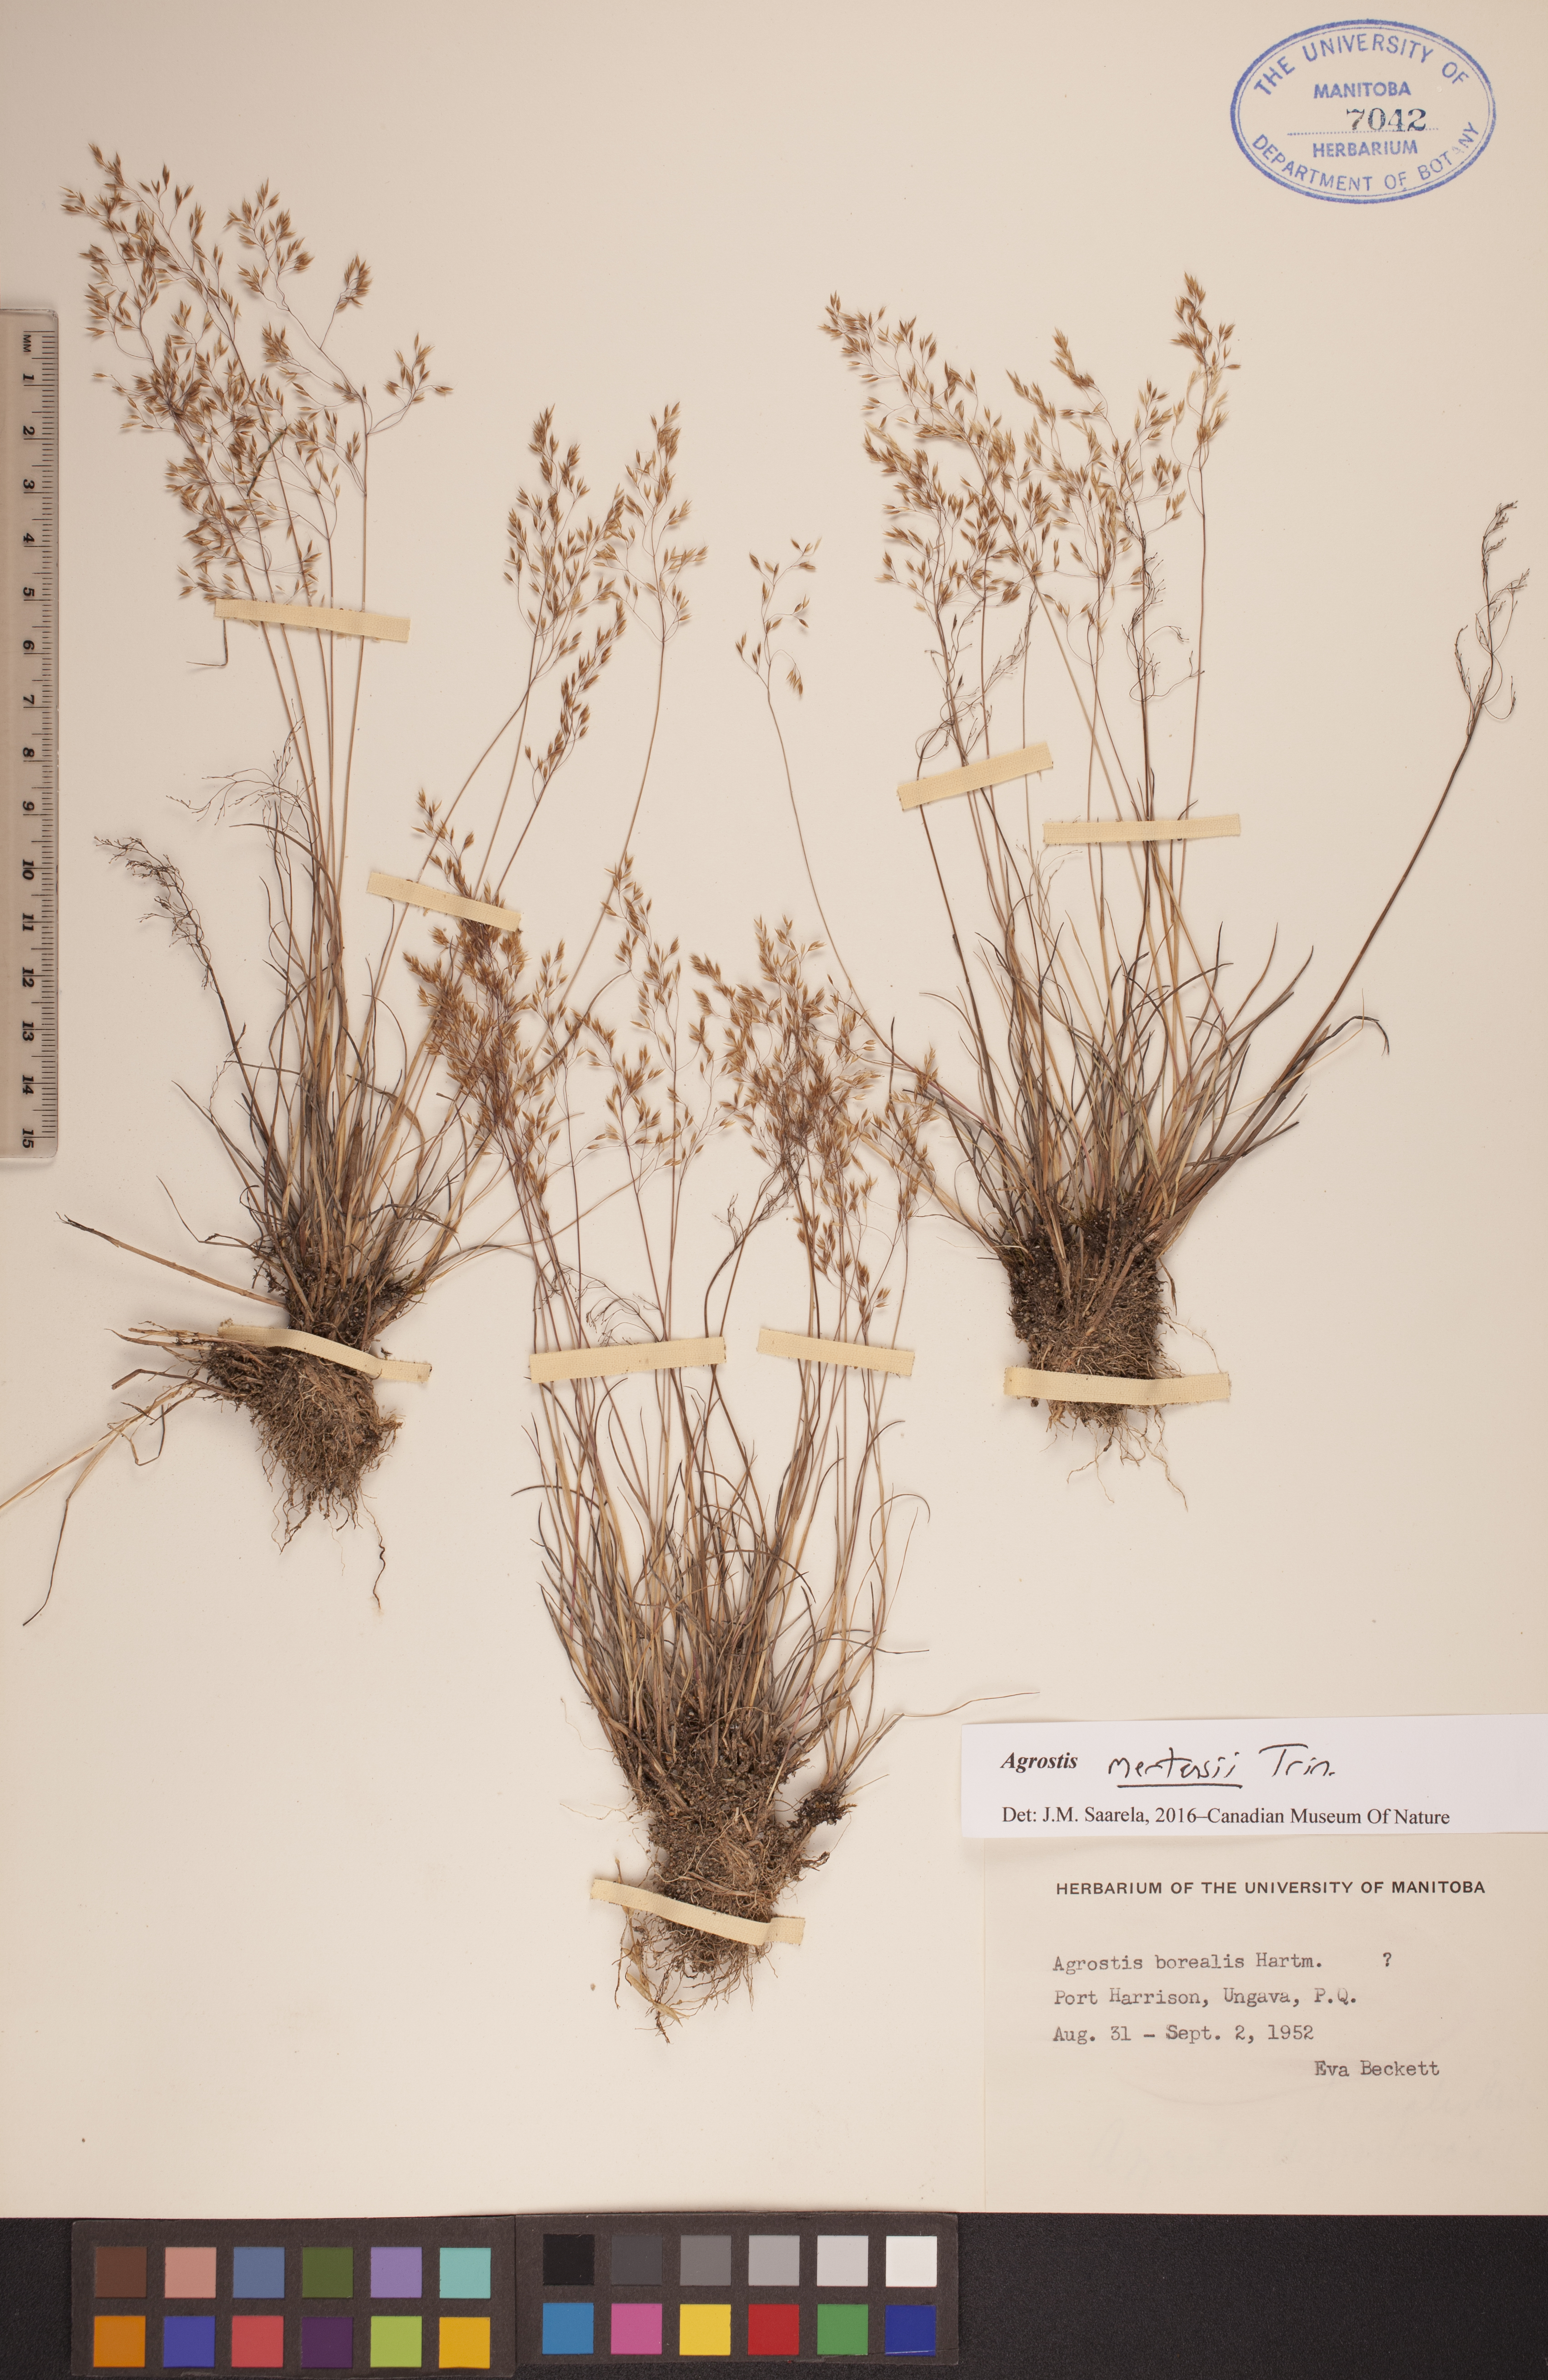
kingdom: Plantae
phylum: Tracheophyta
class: Liliopsida
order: Poales
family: Poaceae
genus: Agrostis
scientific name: Agrostis mertensii
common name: Northern bent
